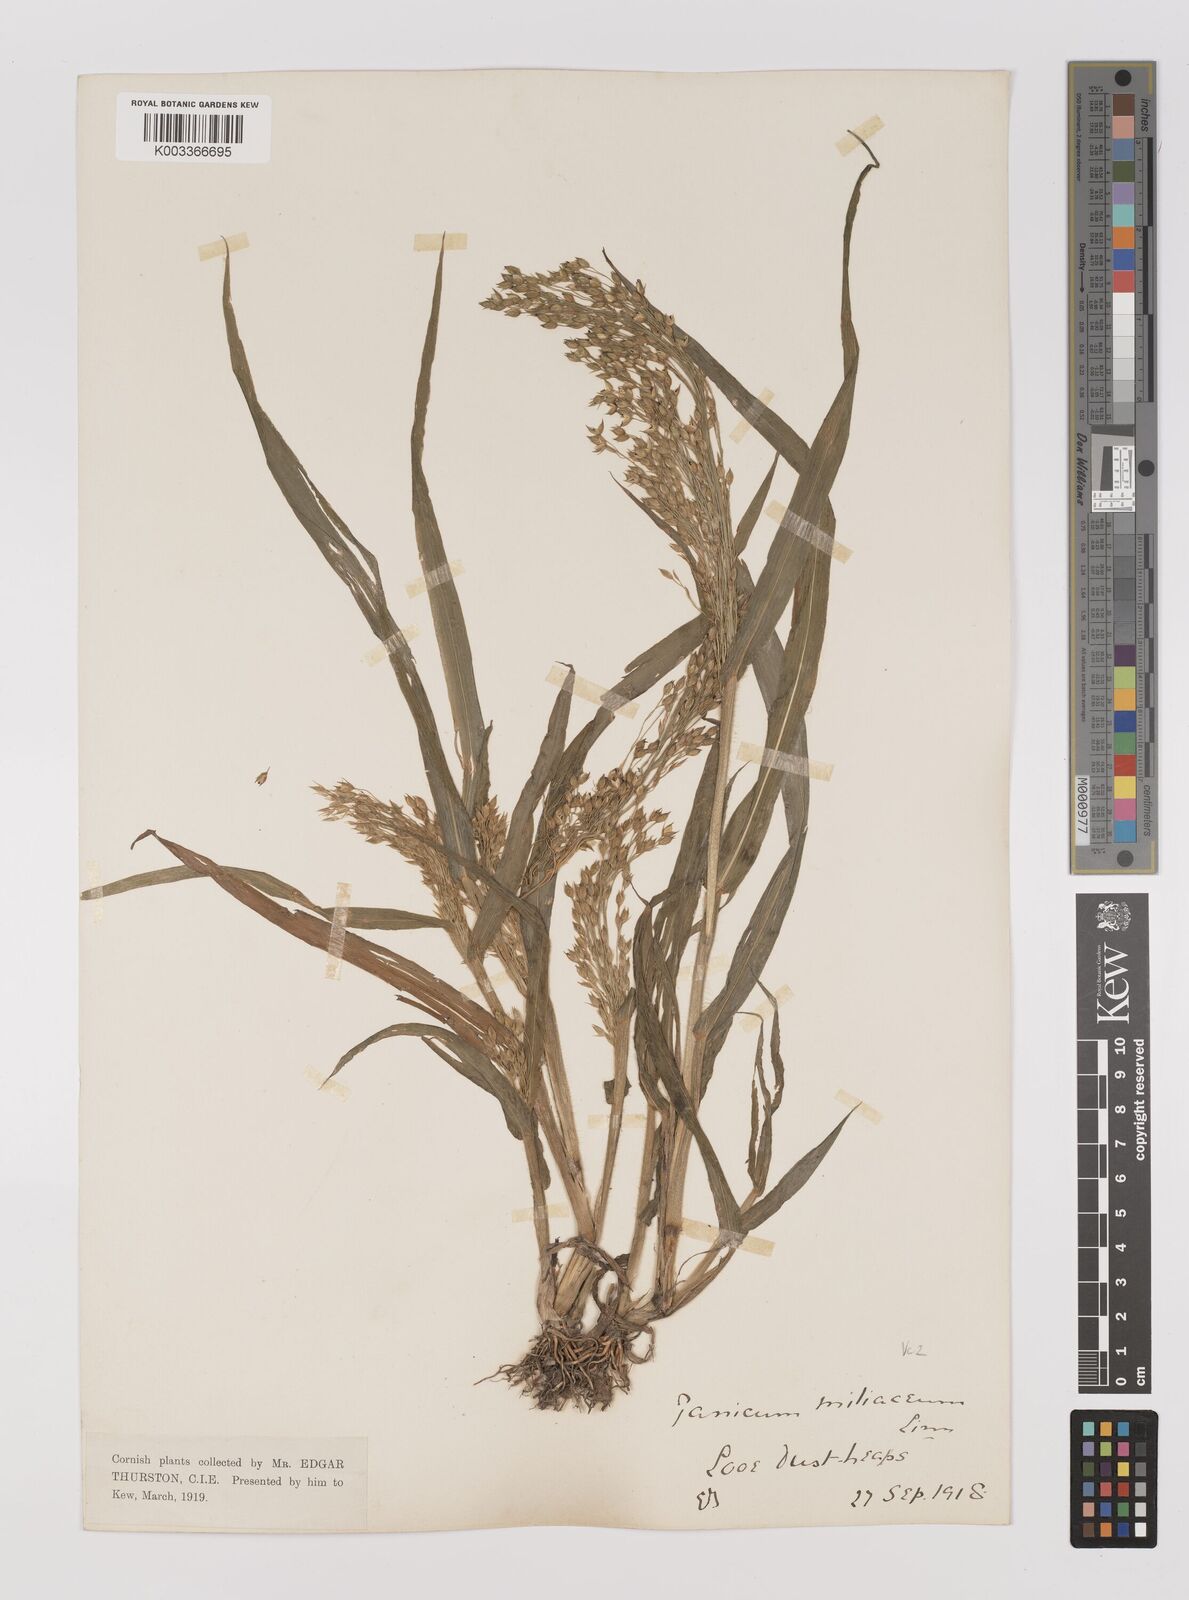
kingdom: Plantae
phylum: Tracheophyta
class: Liliopsida
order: Poales
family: Poaceae
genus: Panicum
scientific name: Panicum miliaceum
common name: Common millet
